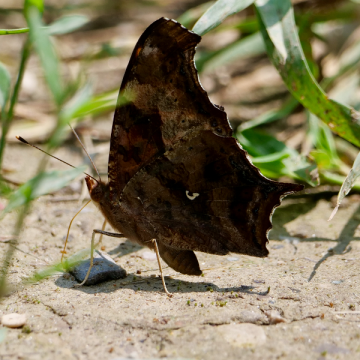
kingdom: Animalia
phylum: Arthropoda
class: Insecta
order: Lepidoptera
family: Nymphalidae
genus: Polygonia
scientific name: Polygonia comma
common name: Eastern Comma
